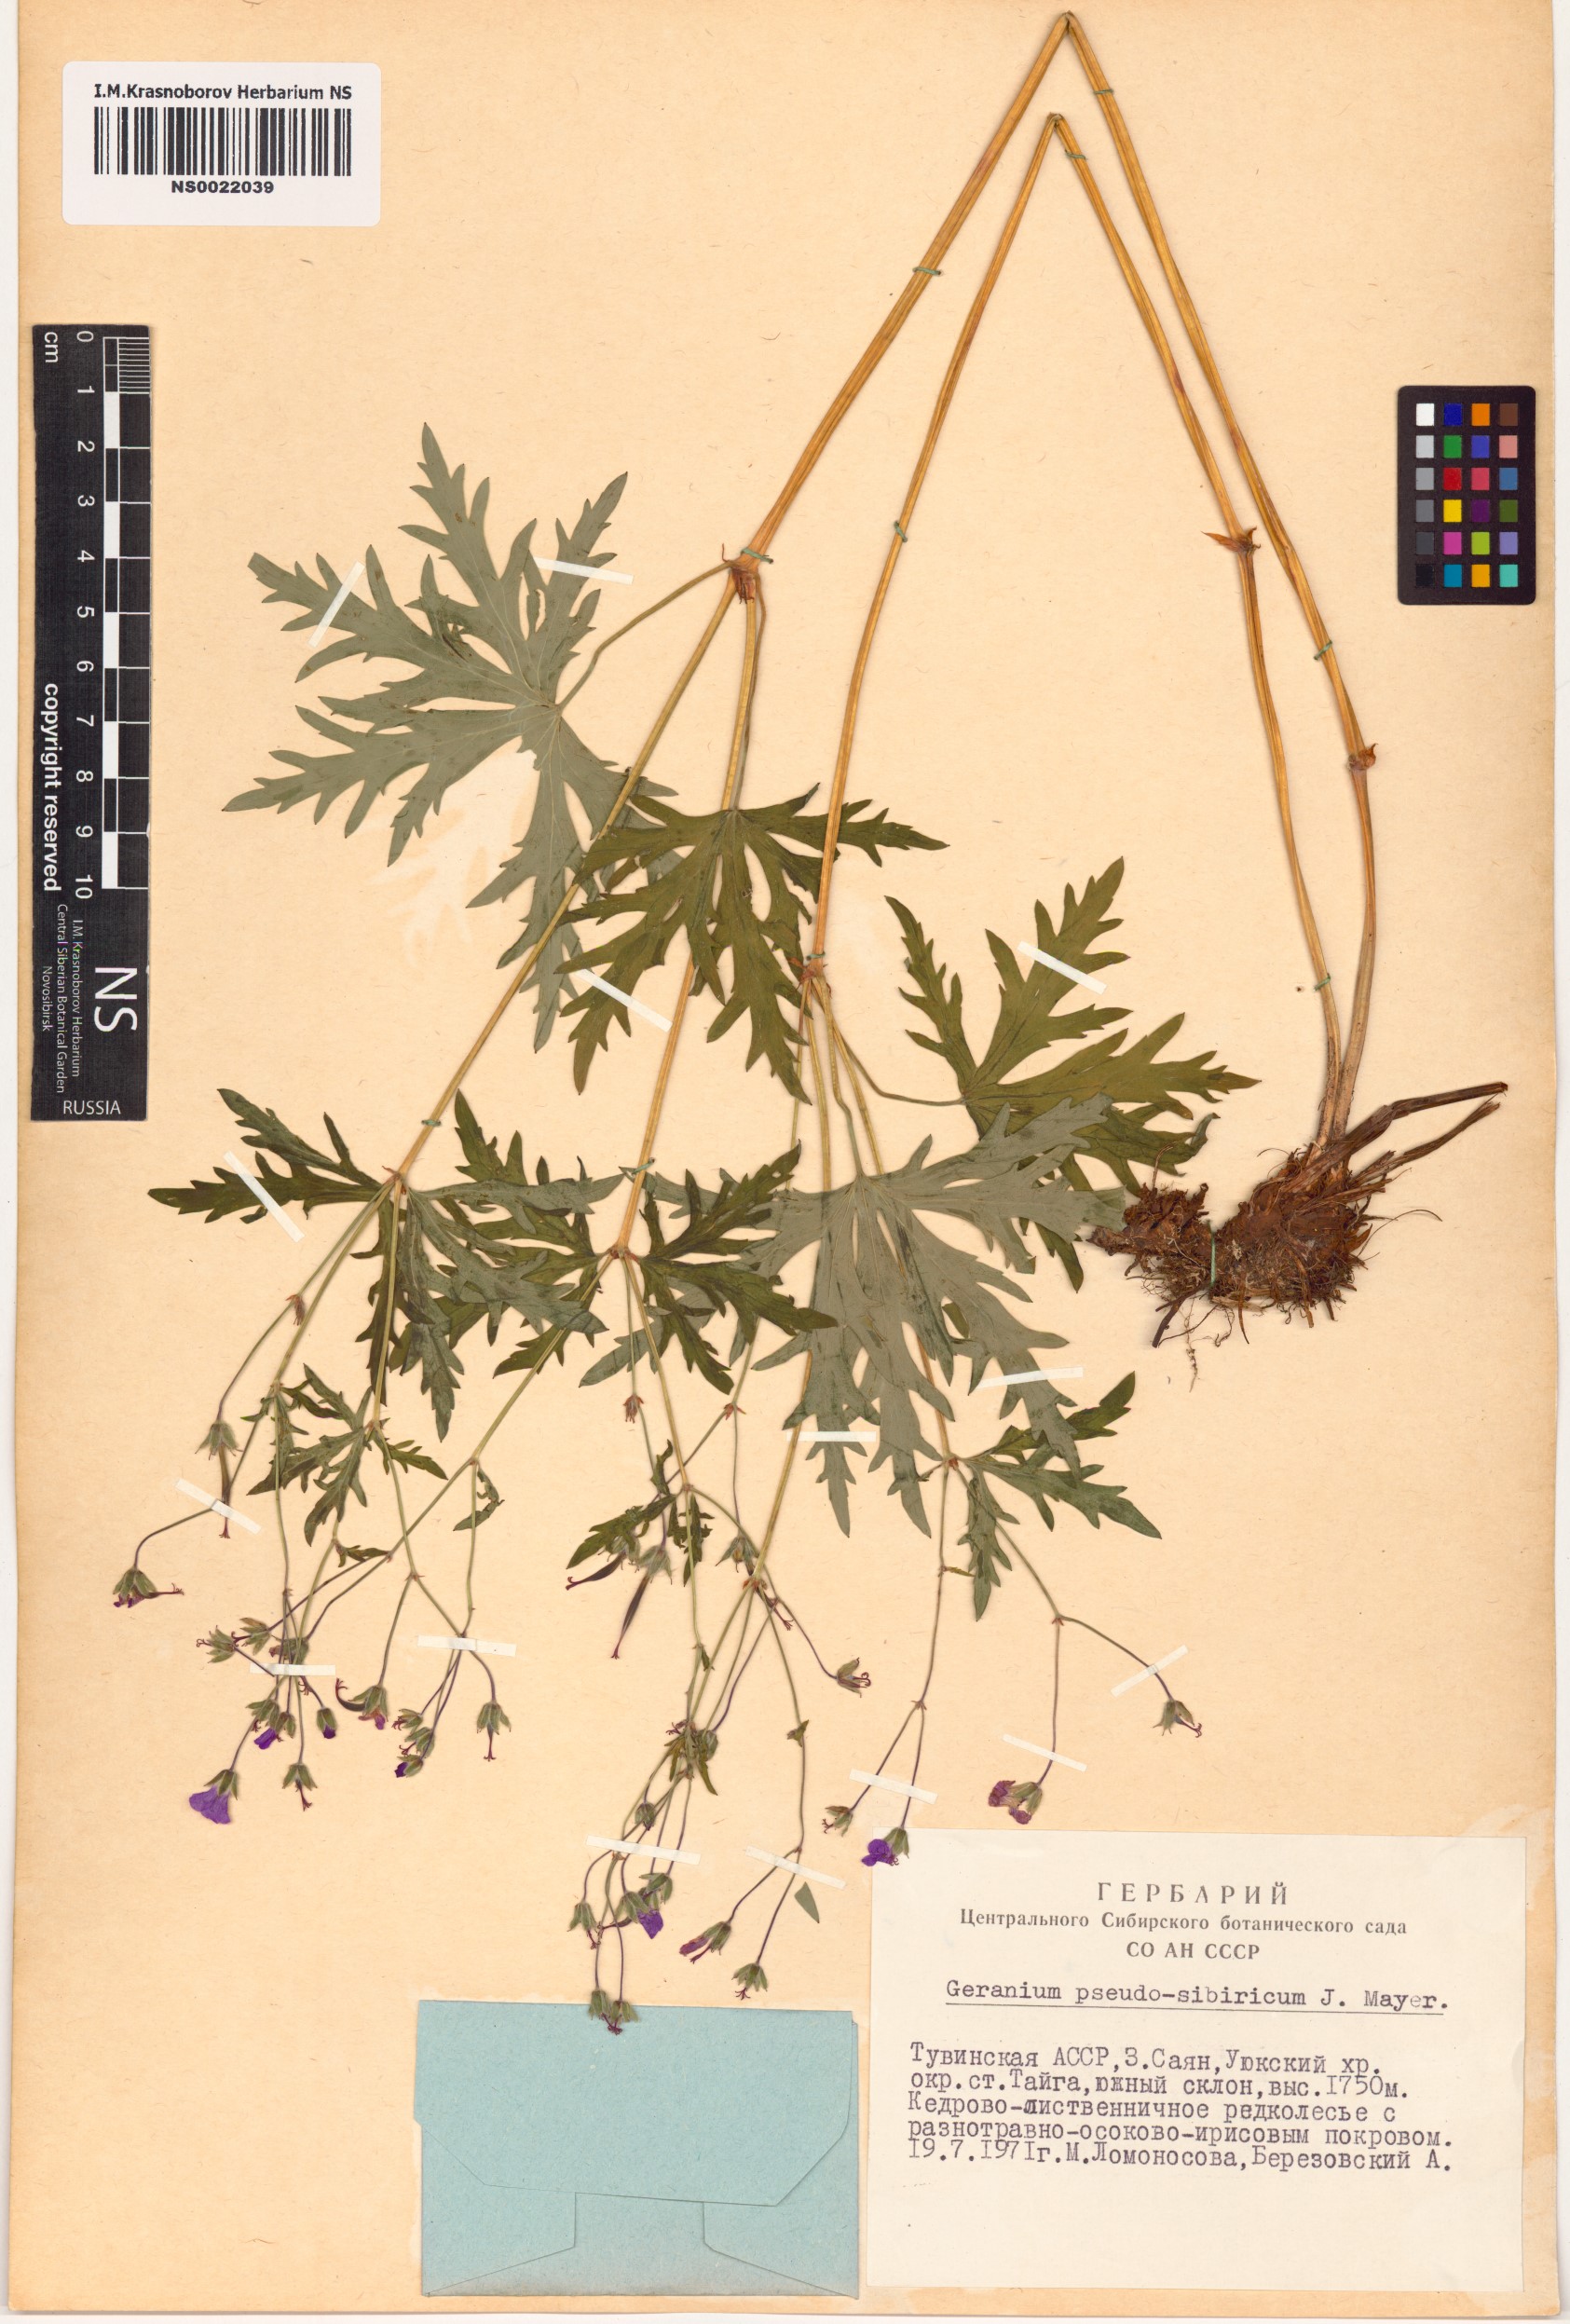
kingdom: Plantae
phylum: Tracheophyta
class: Magnoliopsida
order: Geraniales
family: Geraniaceae
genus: Geranium
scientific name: Geranium pseudosibiricum
